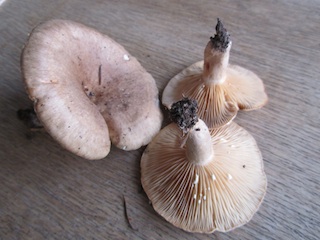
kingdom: Fungi
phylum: Basidiomycota
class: Agaricomycetes
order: Russulales
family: Russulaceae
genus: Lactarius
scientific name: Lactarius pyrogalus
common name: hassel-mælkehat
